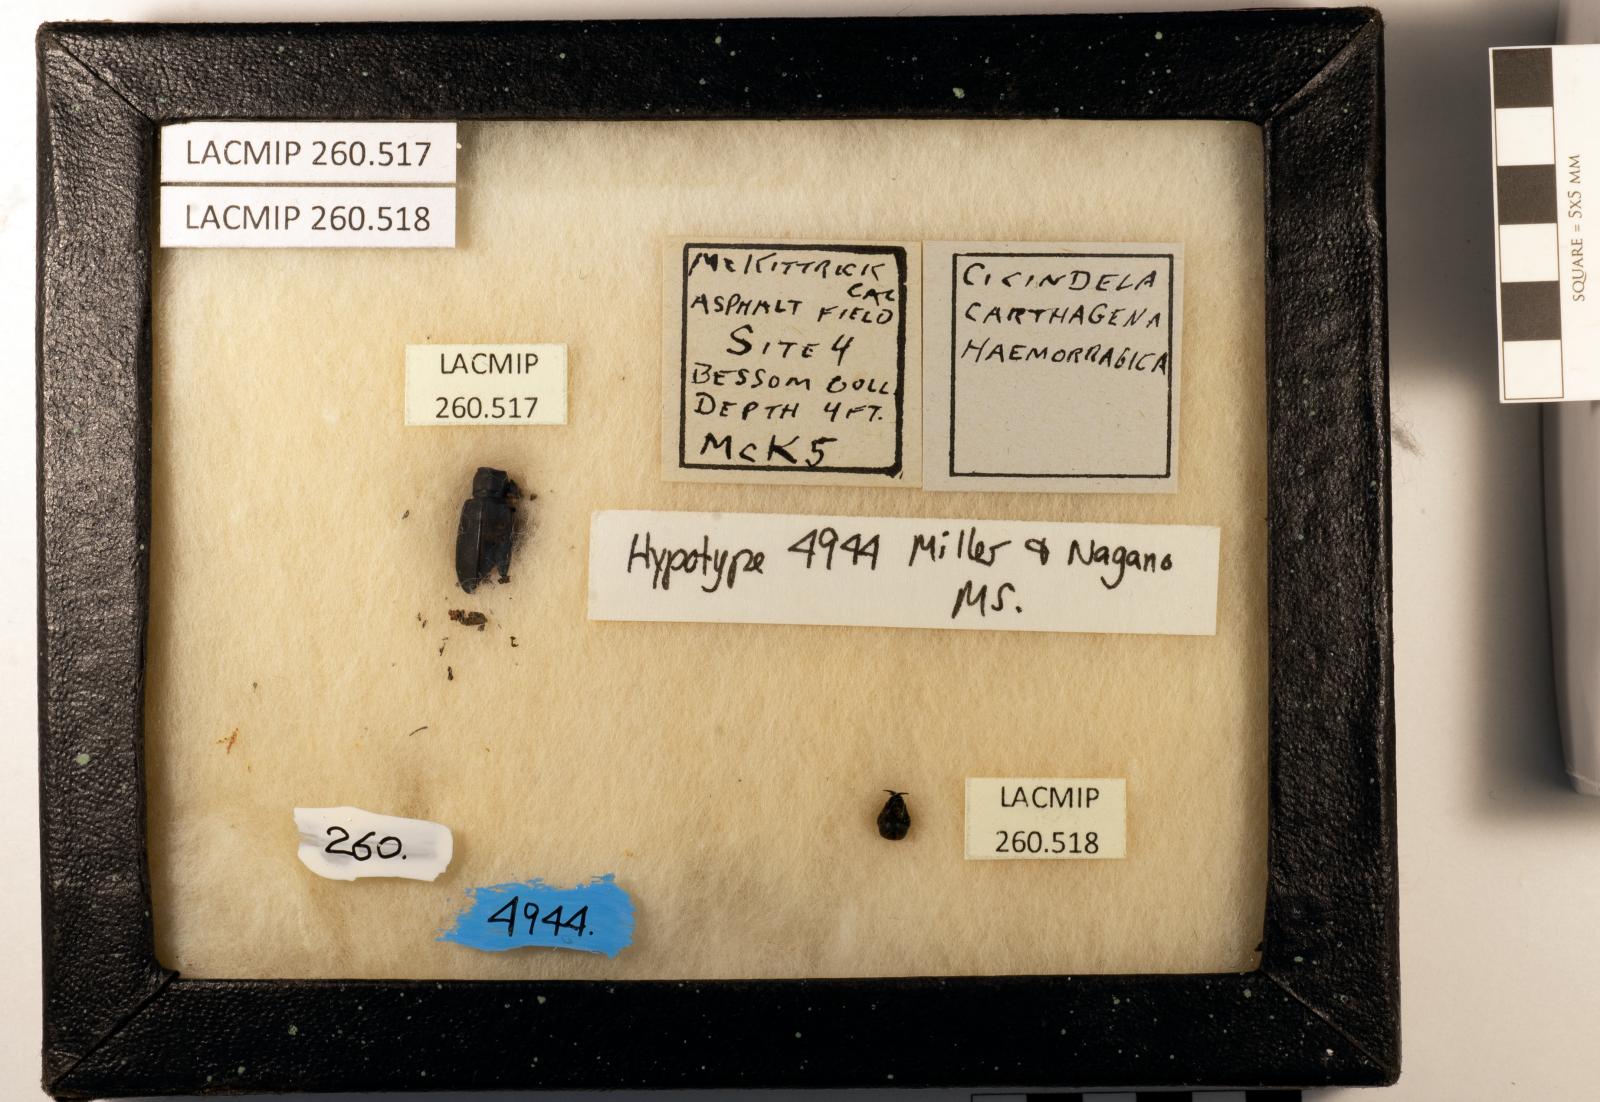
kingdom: Animalia
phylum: Arthropoda
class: Insecta
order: Coleoptera
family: Carabidae
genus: Cicindela
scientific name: Cicindela hemorrhagica
